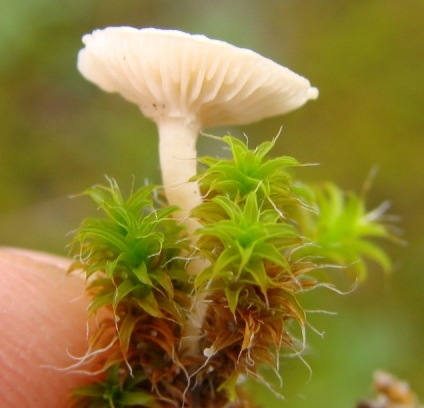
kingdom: Fungi
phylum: Basidiomycota
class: Agaricomycetes
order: Agaricales
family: Tricholomataceae
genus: Clitocybe
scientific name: Clitocybe agrestis
